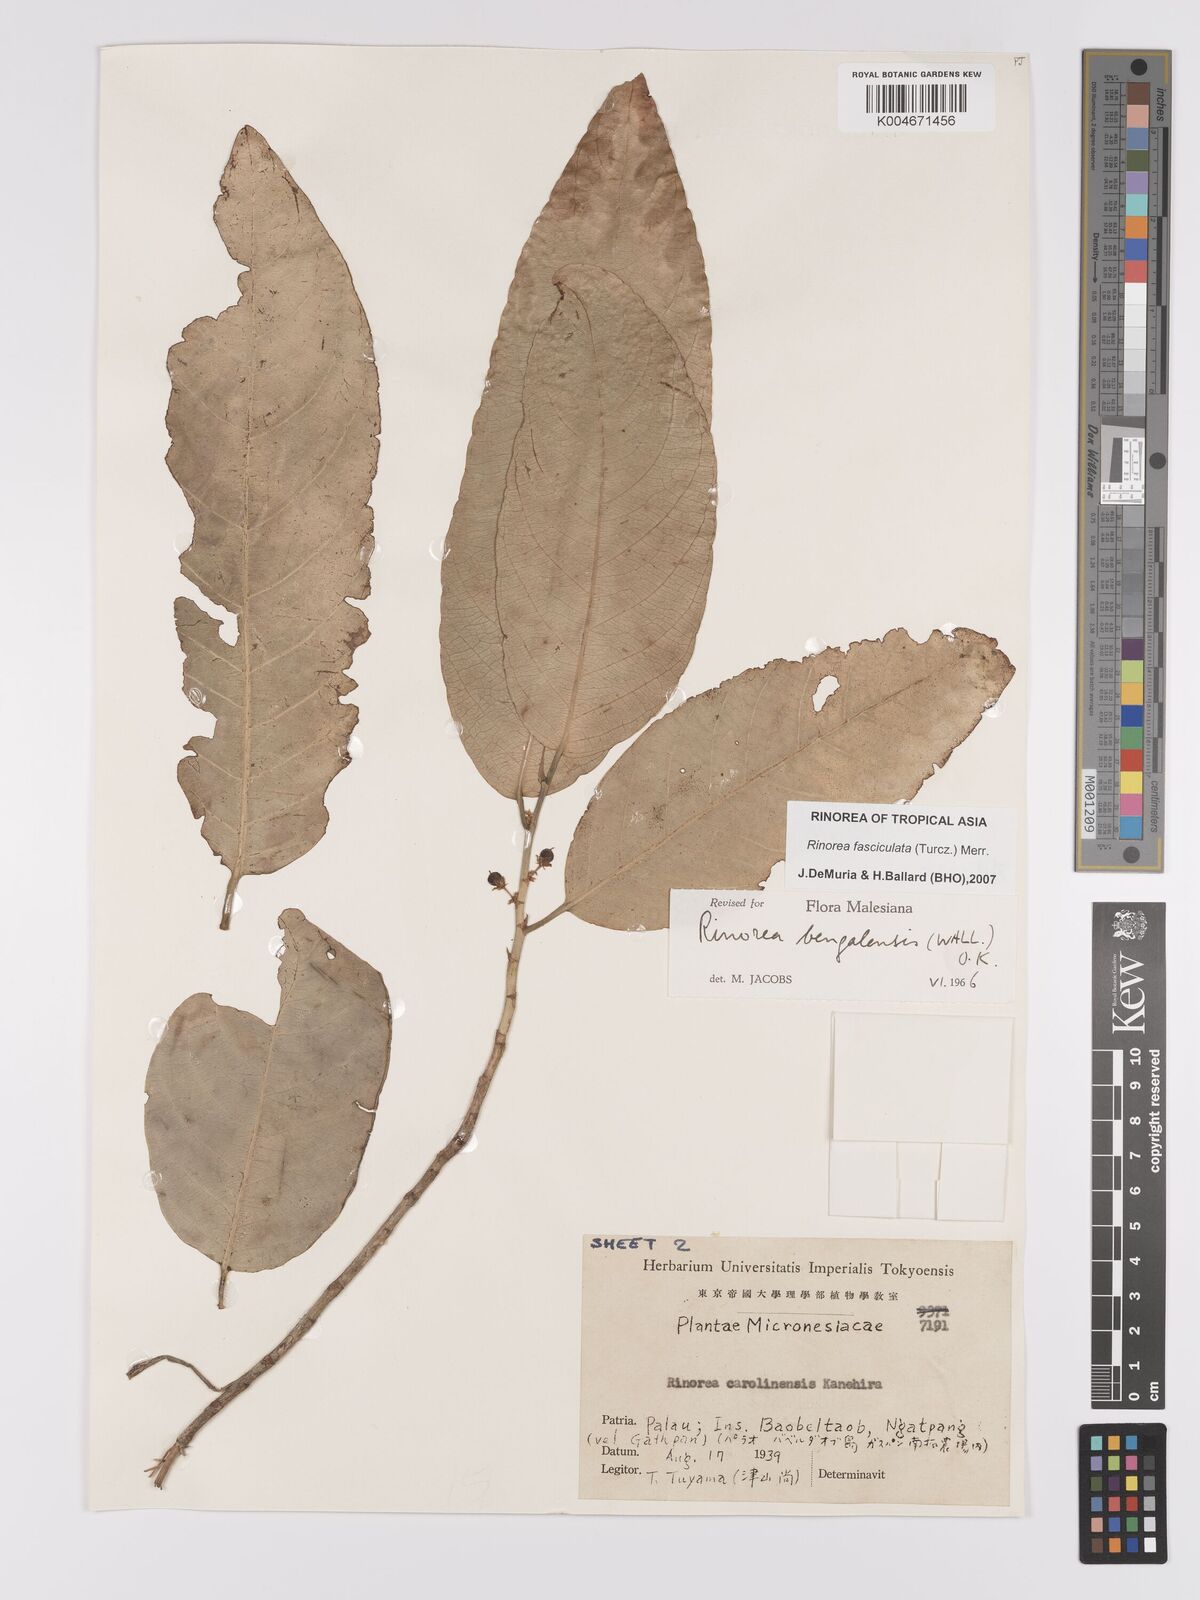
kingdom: Plantae
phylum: Tracheophyta
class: Magnoliopsida
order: Malpighiales
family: Violaceae
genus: Rinorea
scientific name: Rinorea bengalensis
